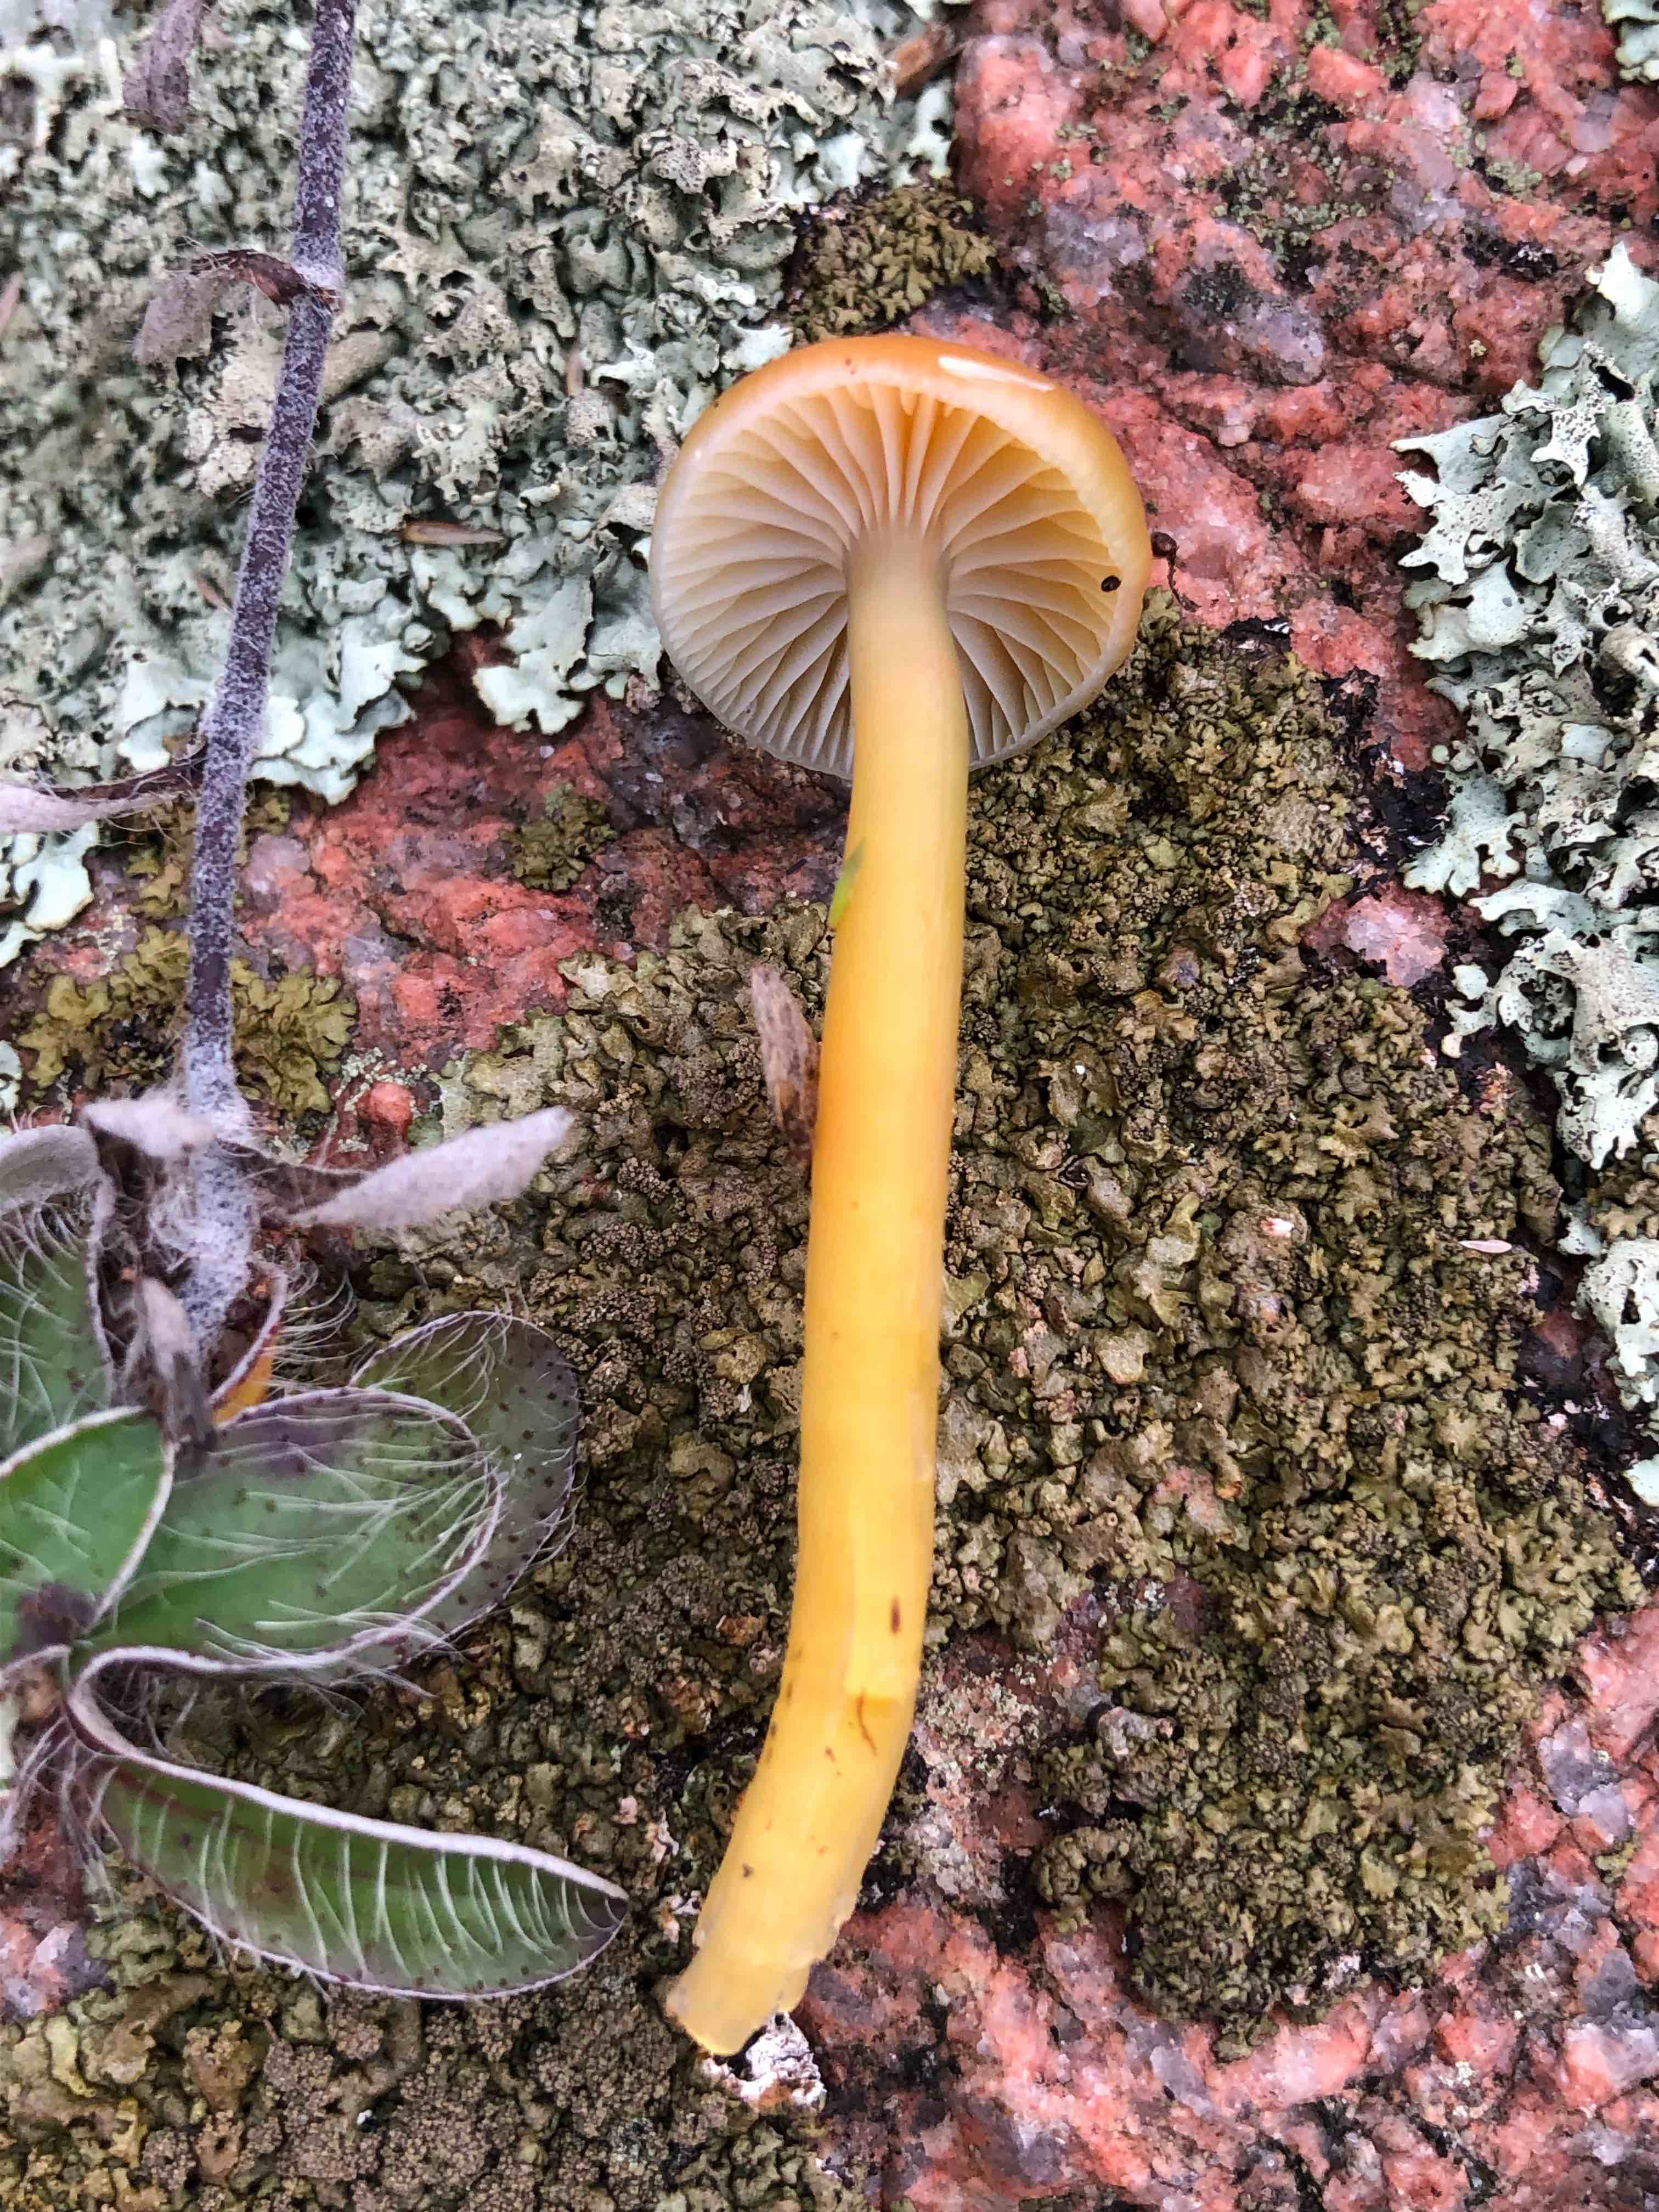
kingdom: Fungi
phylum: Basidiomycota
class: Agaricomycetes
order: Agaricales
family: Hygrophoraceae
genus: Gliophorus
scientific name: Gliophorus laetus
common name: brusk-vokshat
